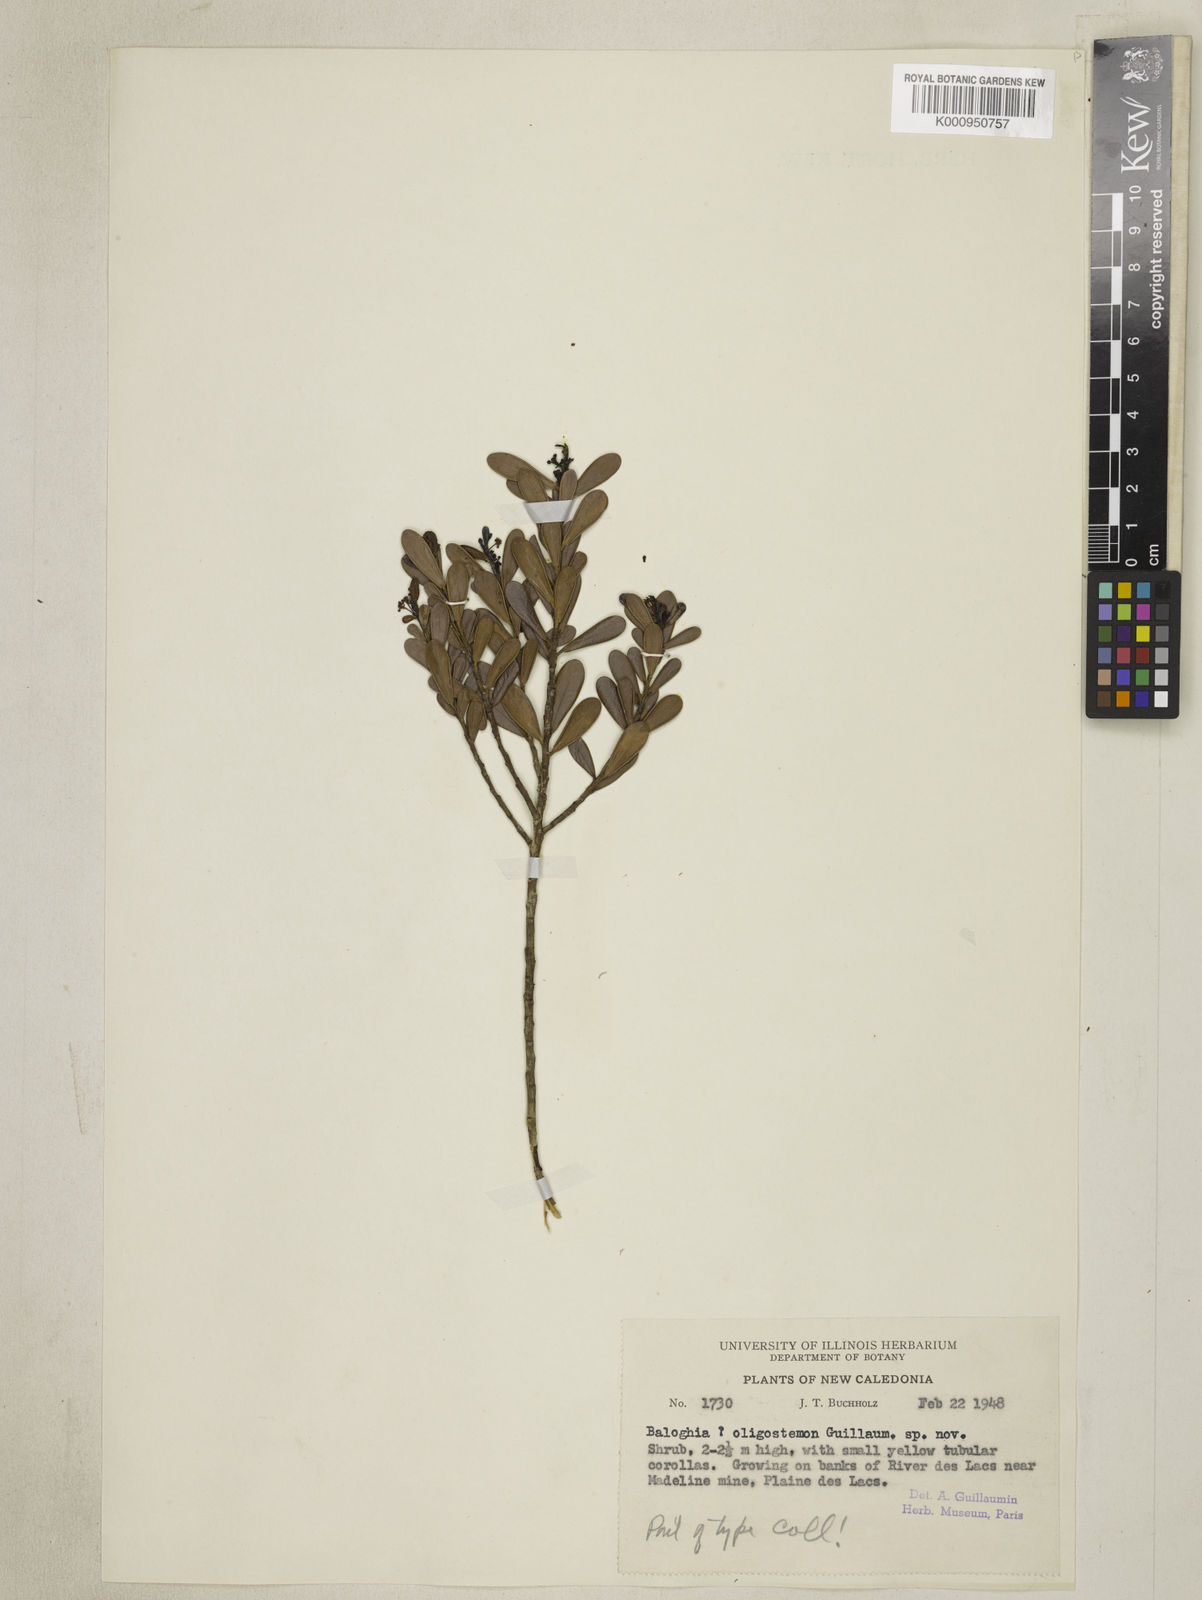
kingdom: Plantae
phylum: Tracheophyta
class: Magnoliopsida
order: Malpighiales
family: Picrodendraceae
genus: Scagea
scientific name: Scagea oligostemon
